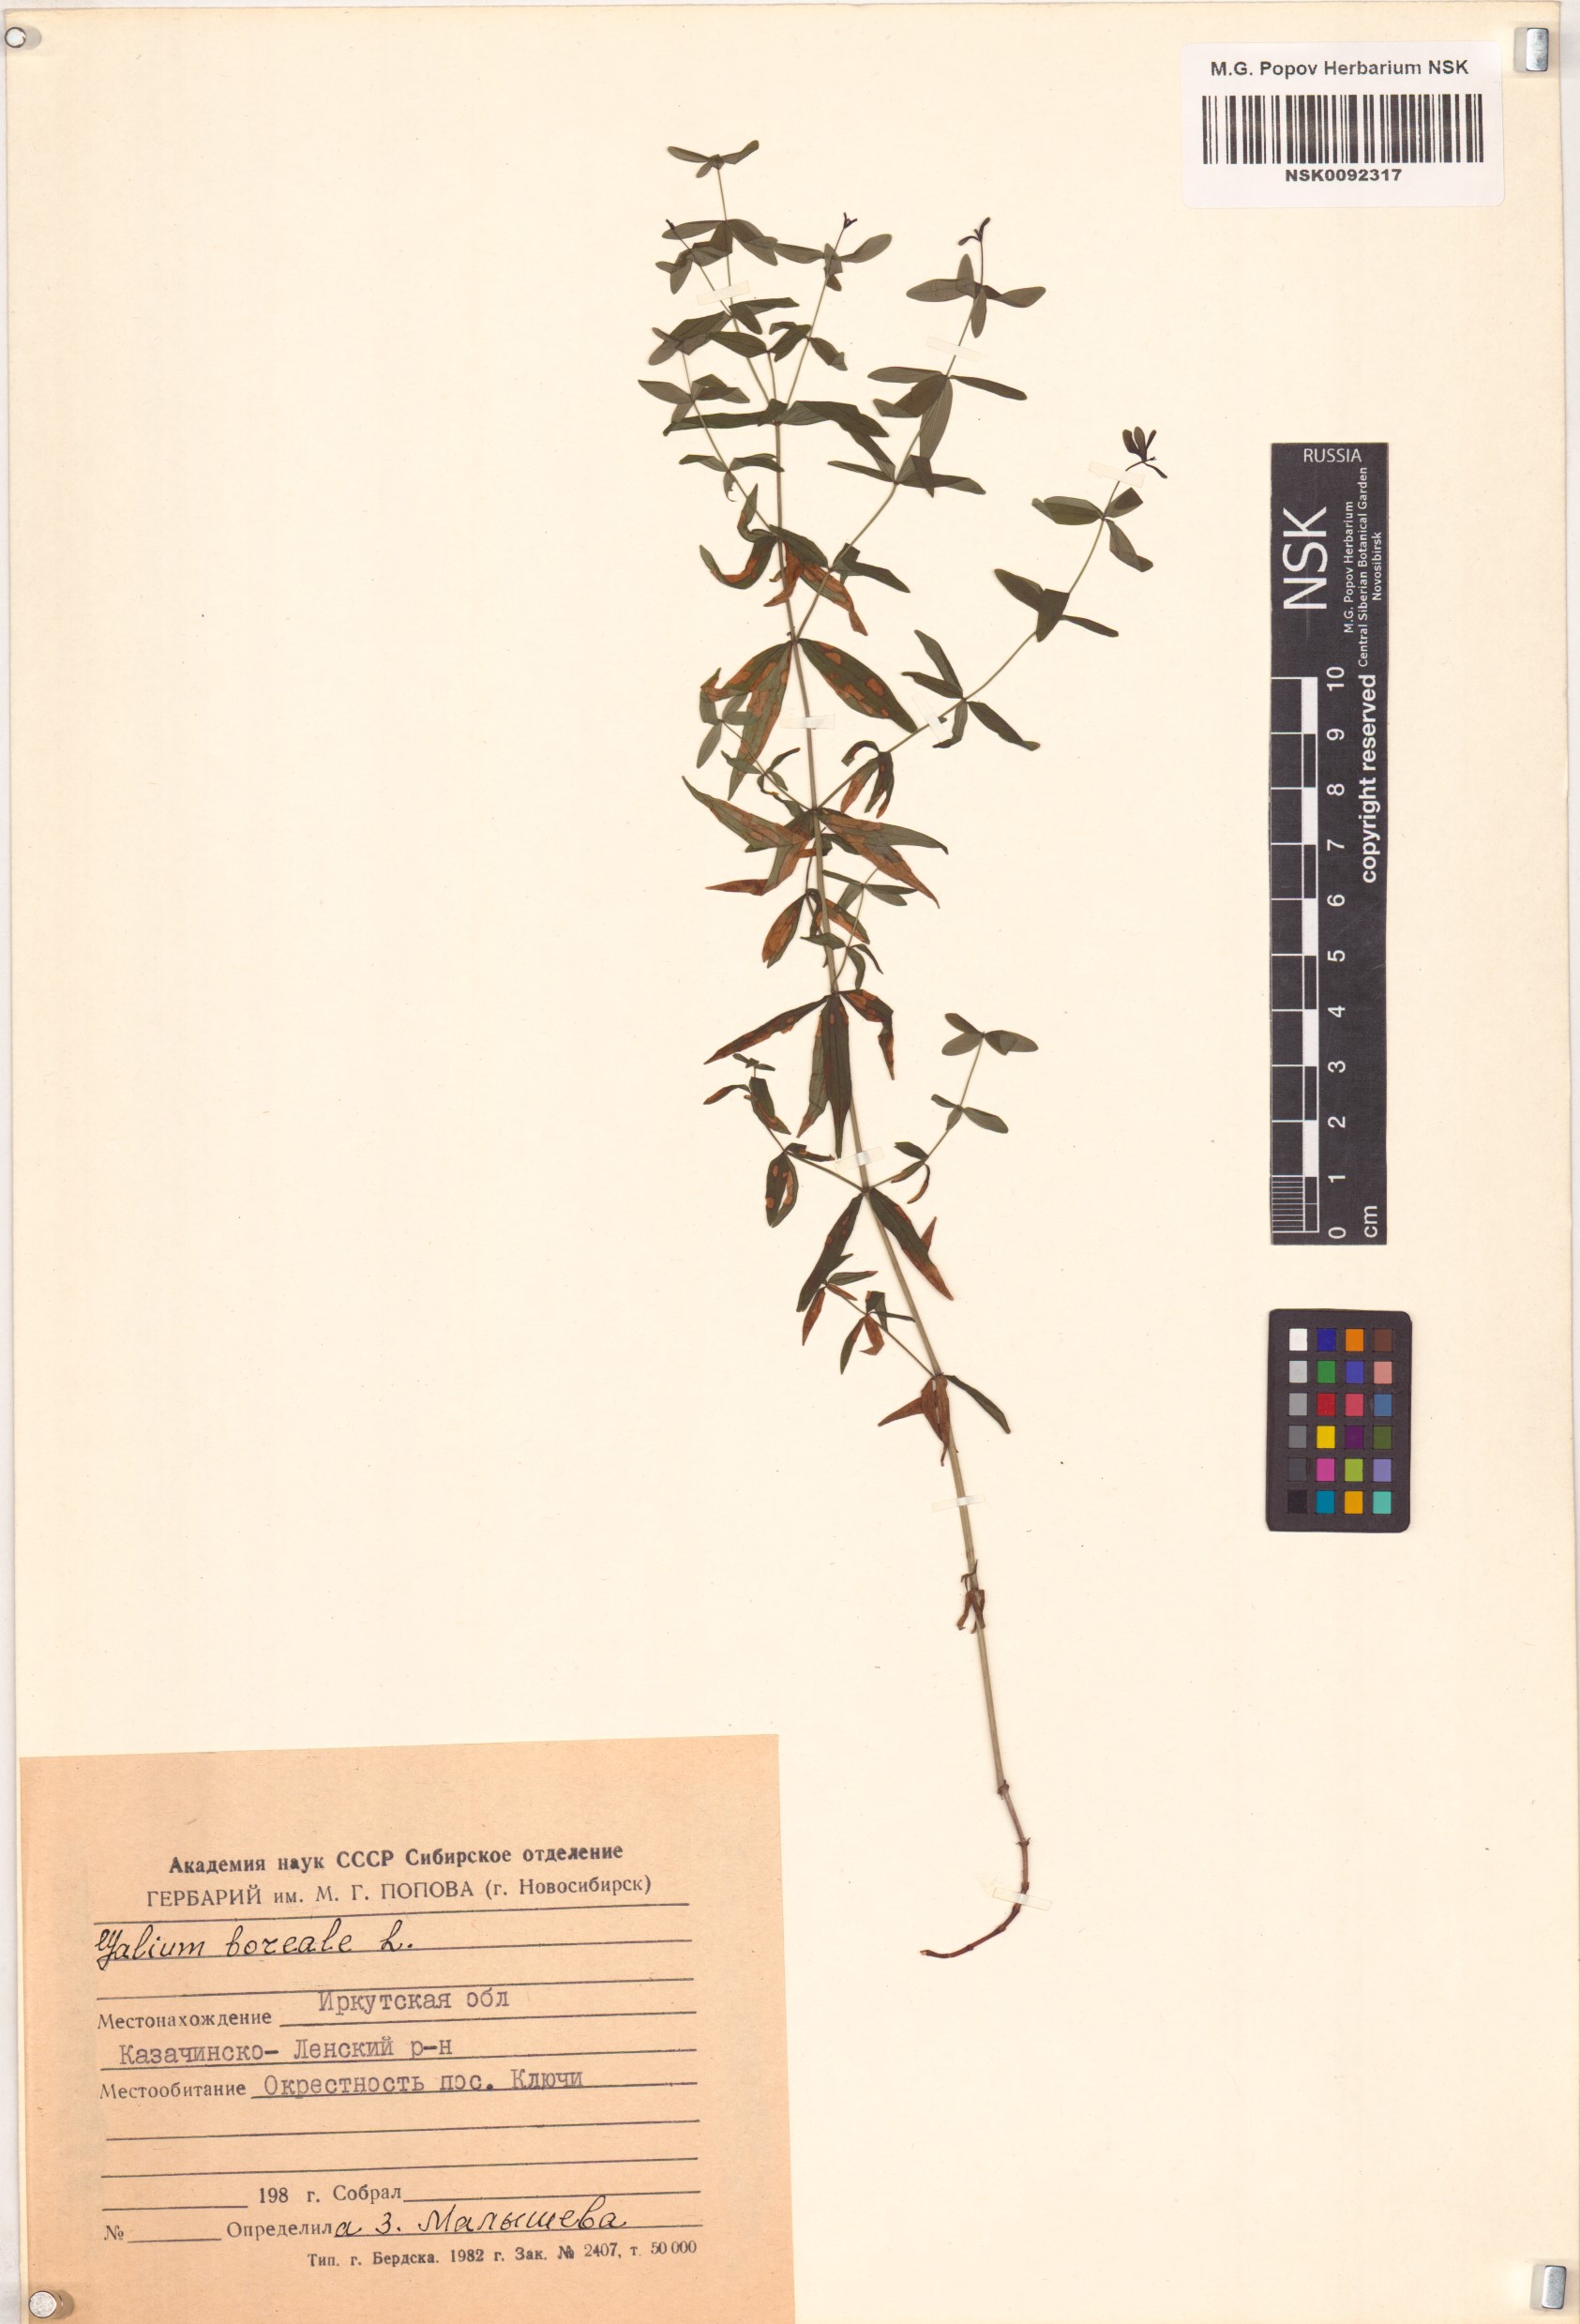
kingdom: Plantae
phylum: Tracheophyta
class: Magnoliopsida
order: Gentianales
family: Rubiaceae
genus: Galium
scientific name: Galium boreale
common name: Northern bedstraw
